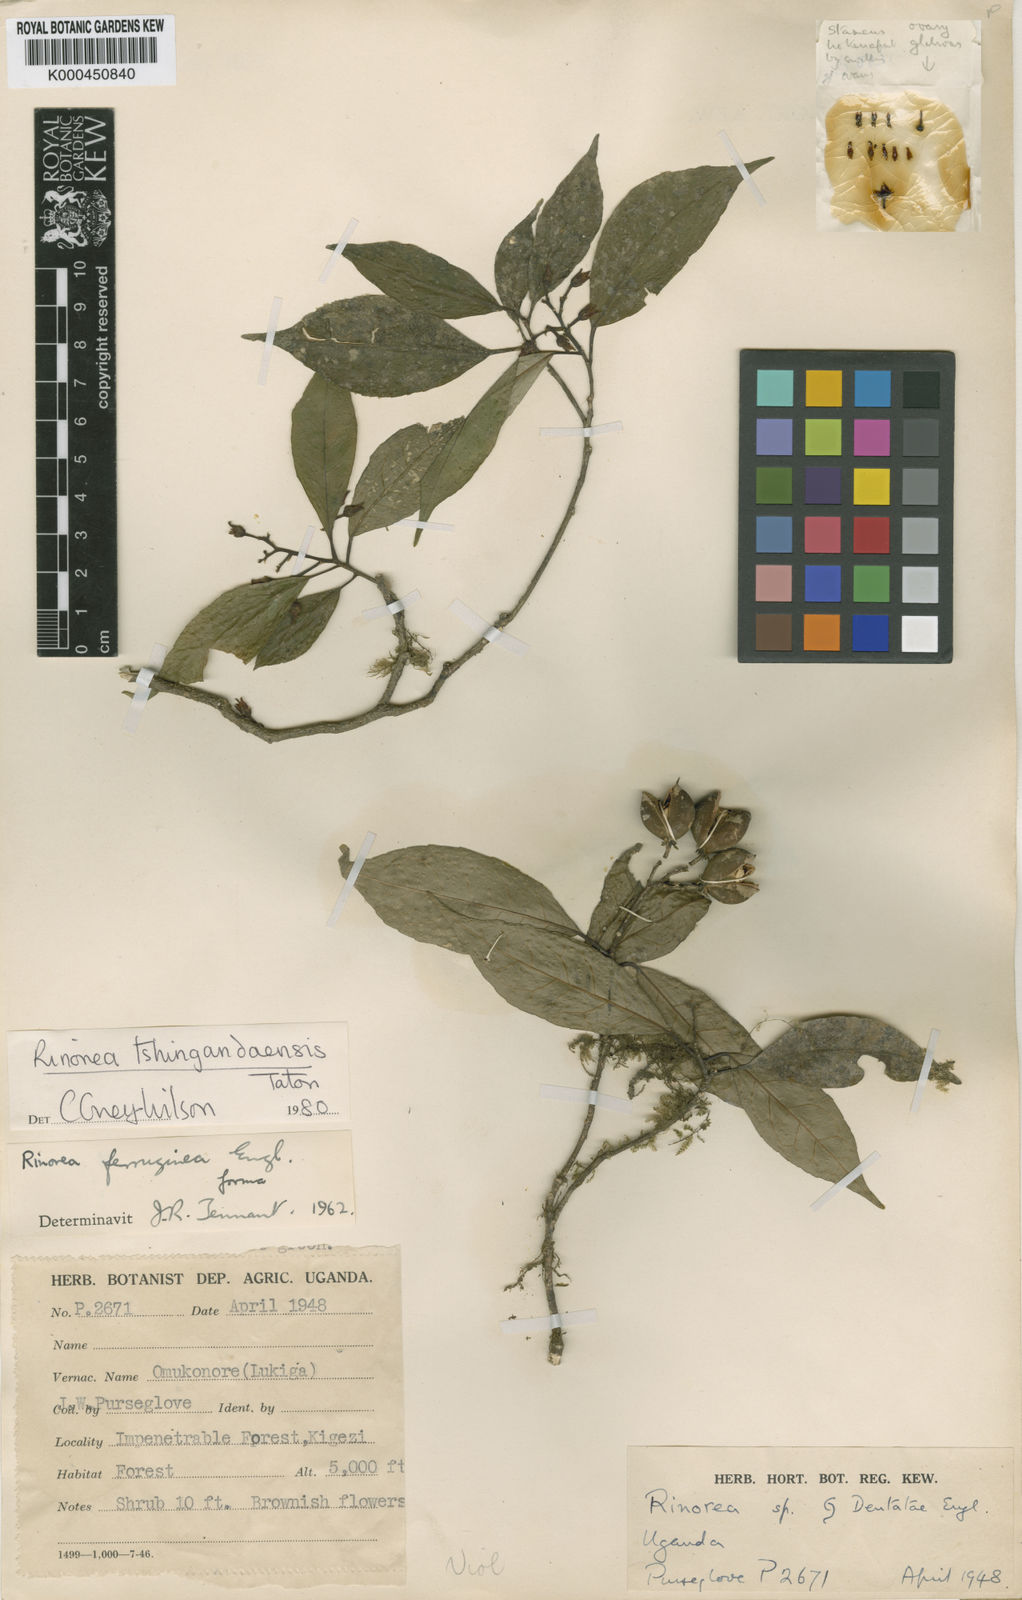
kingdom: Plantae
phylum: Tracheophyta
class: Magnoliopsida
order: Malpighiales
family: Violaceae
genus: Rinorea
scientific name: Rinorea tshingandaensis
